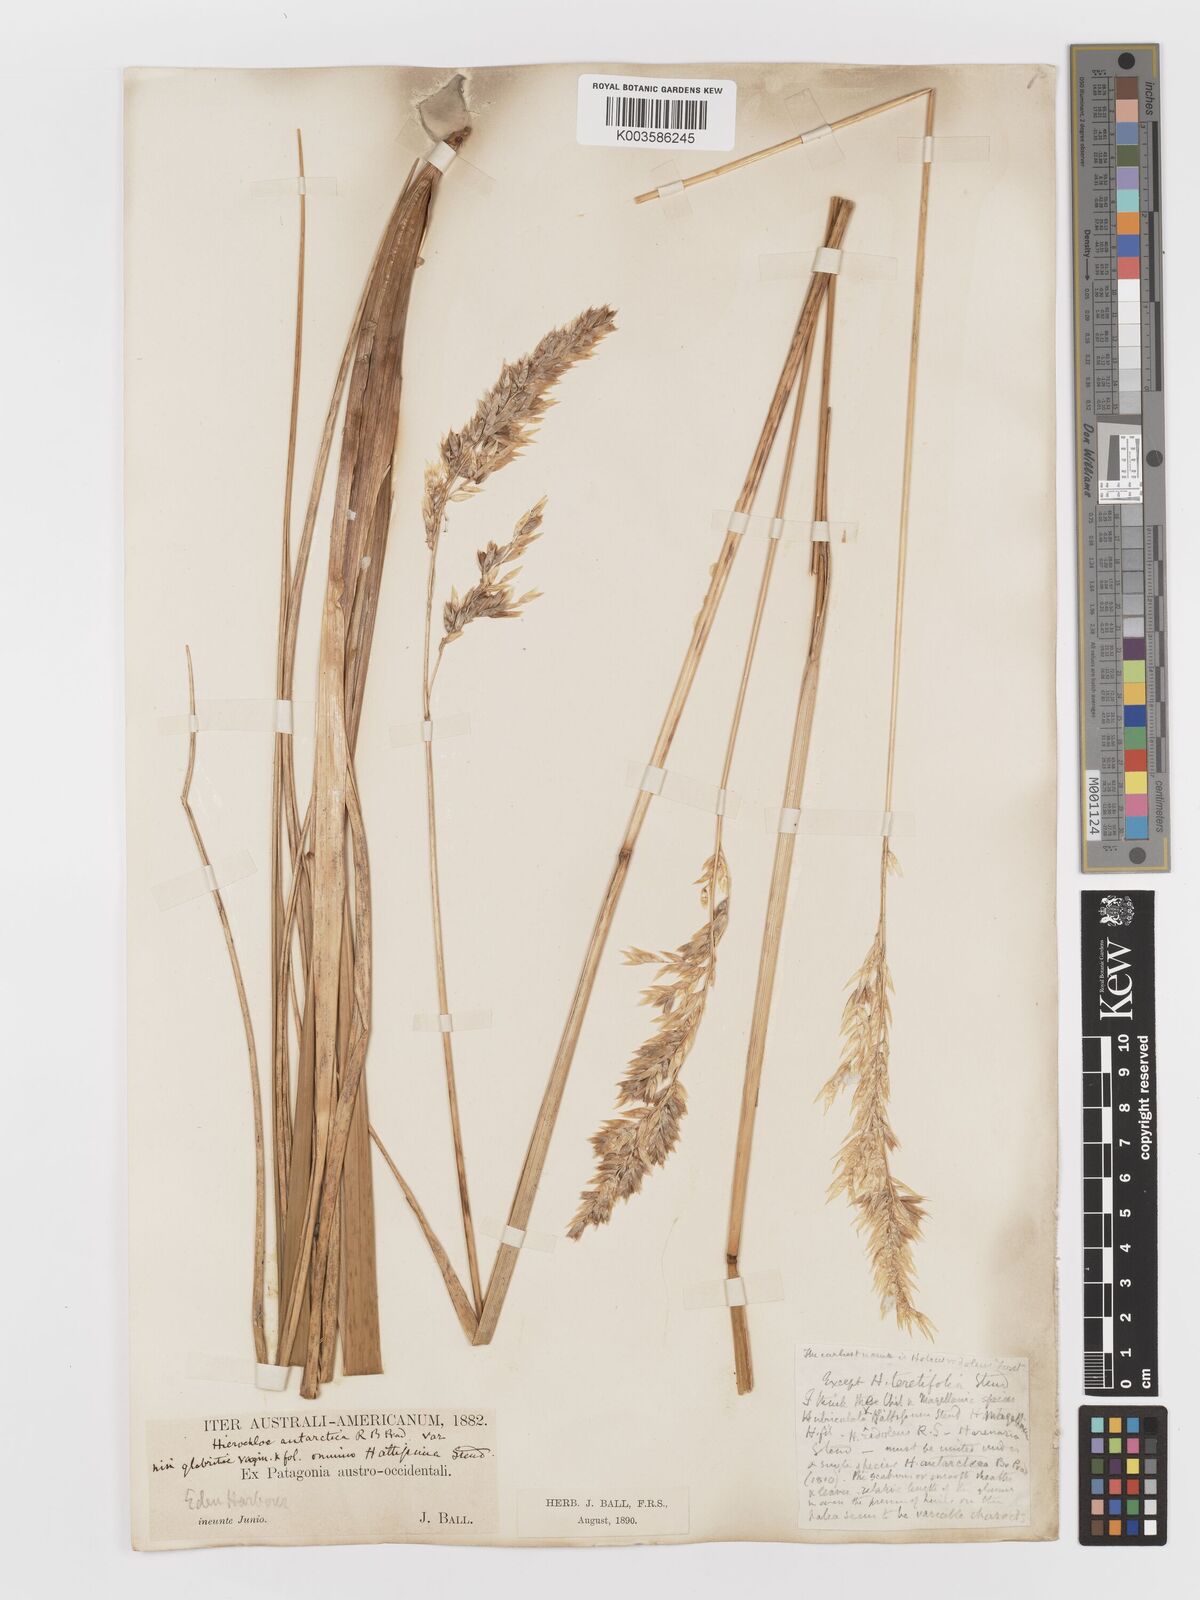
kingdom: Plantae
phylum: Tracheophyta
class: Liliopsida
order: Poales
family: Poaceae
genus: Anthoxanthum
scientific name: Anthoxanthum redolens
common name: Sweet holy grass
